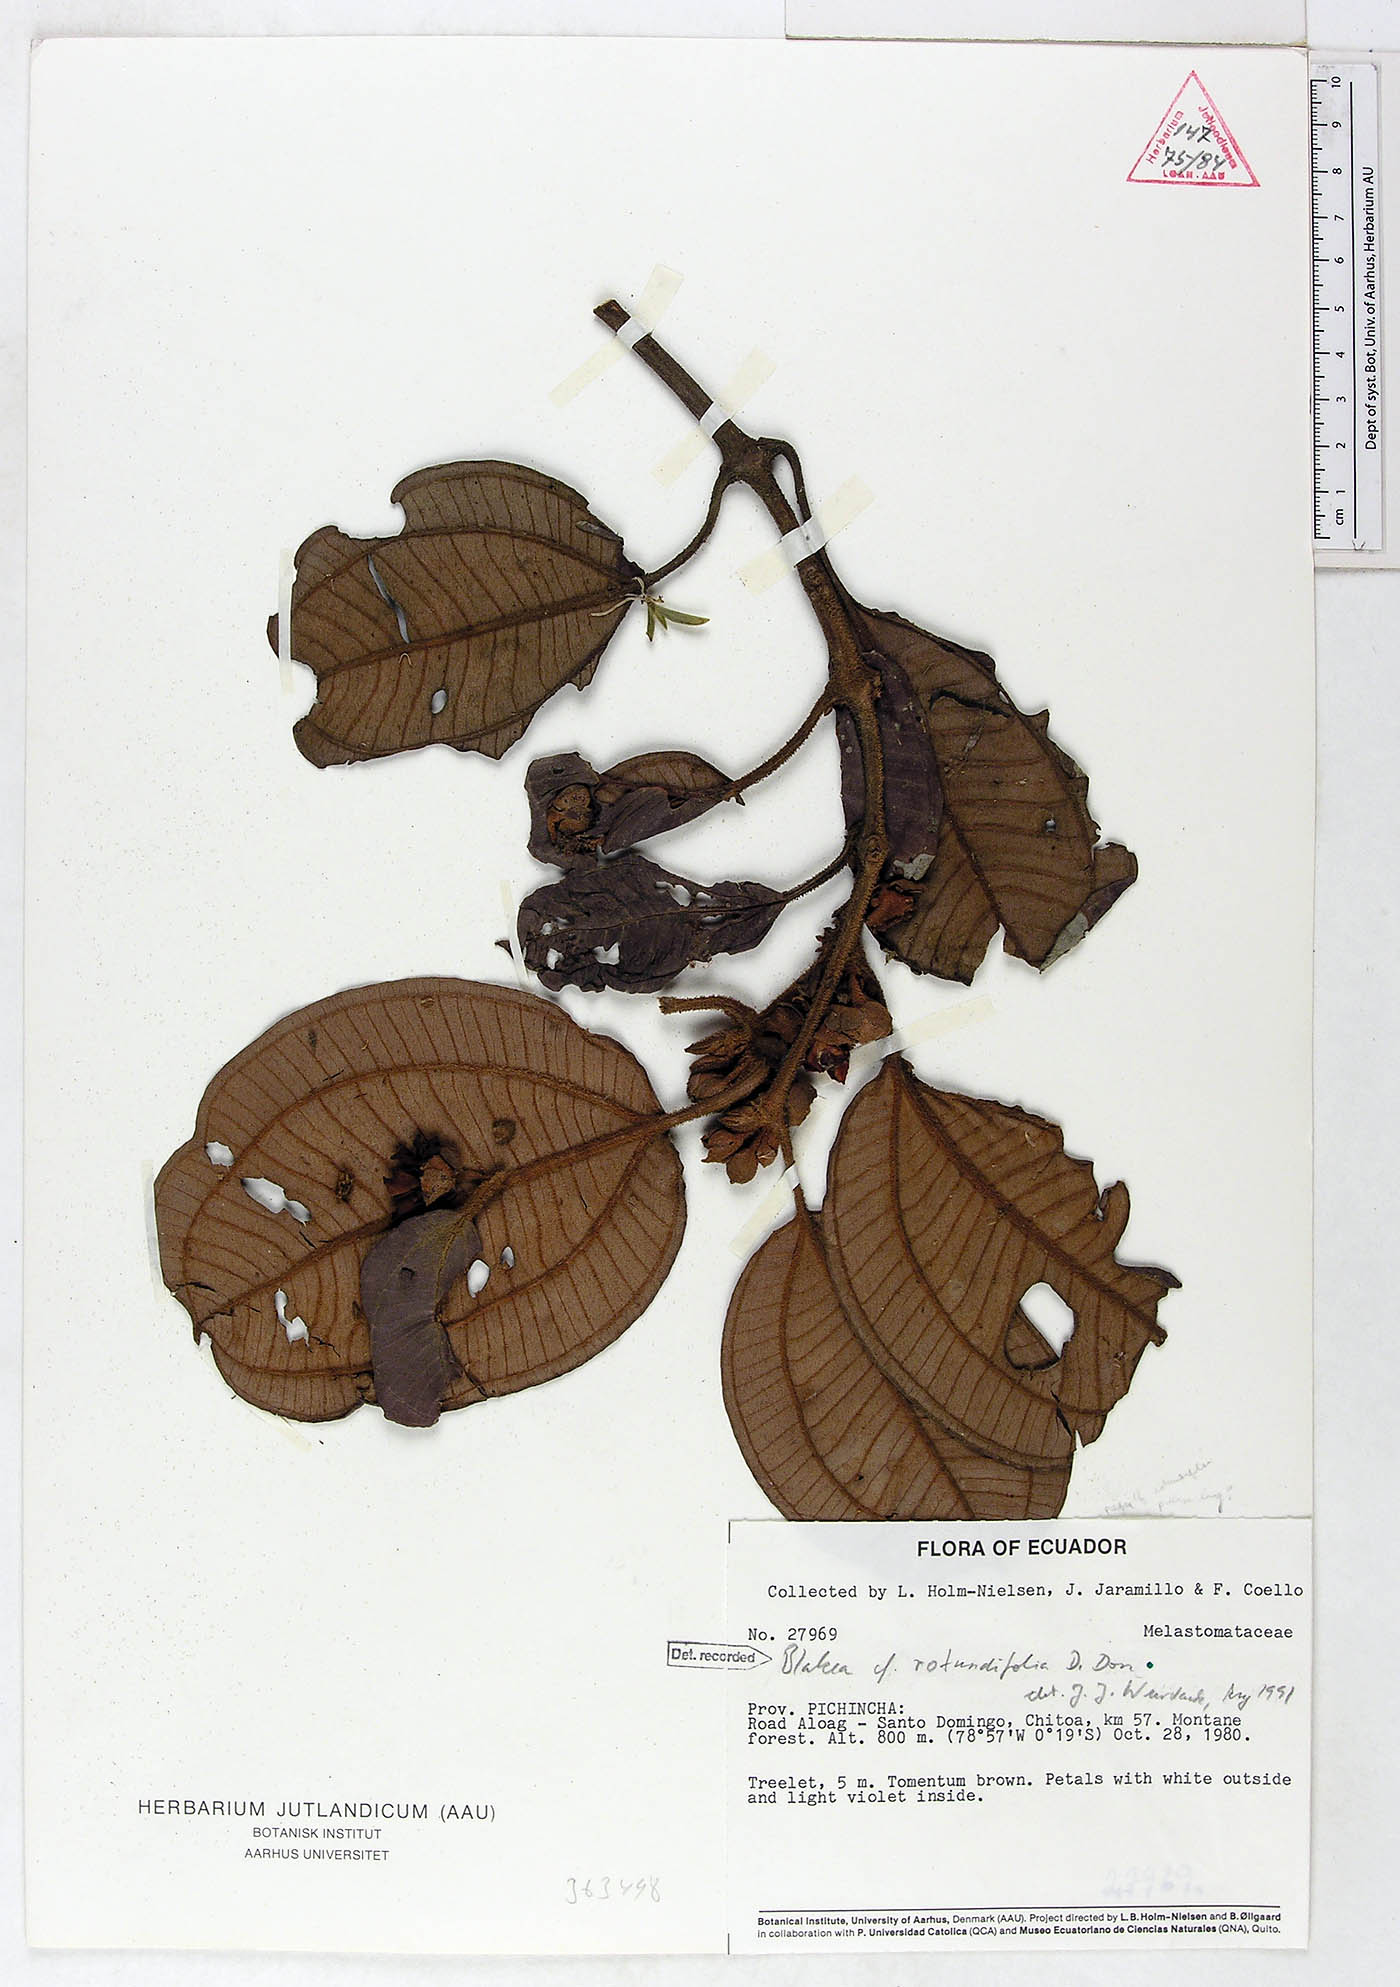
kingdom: Plantae
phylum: Tracheophyta
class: Magnoliopsida
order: Myrtales
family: Melastomataceae
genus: Blakea
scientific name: Blakea rotundifolia
